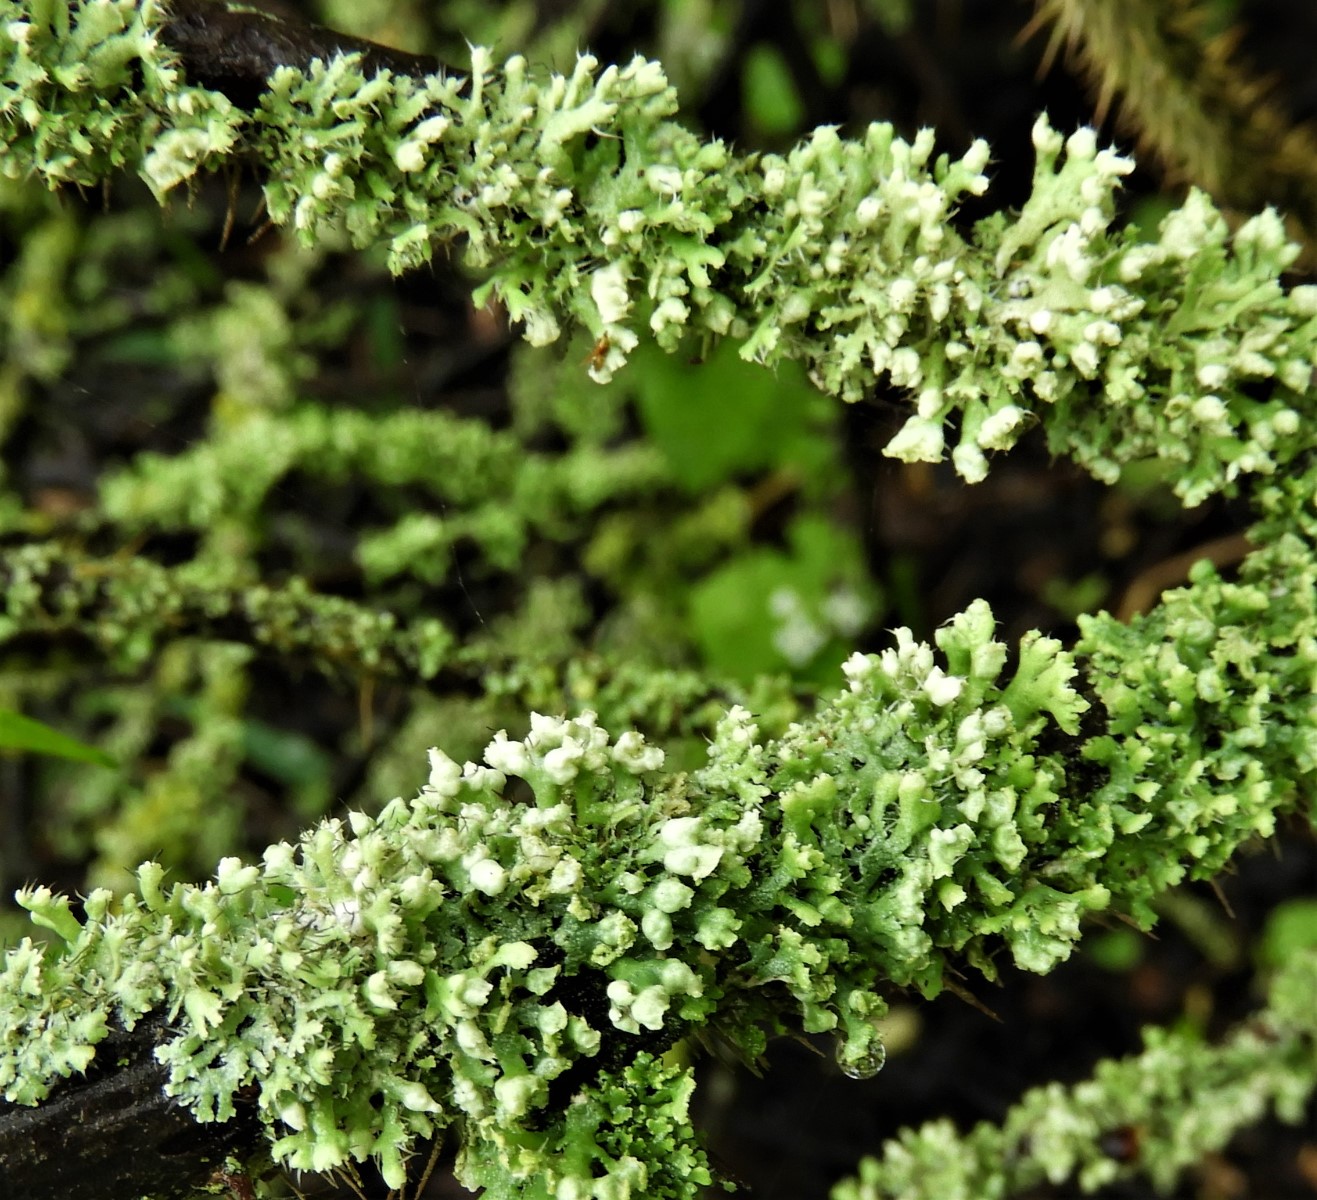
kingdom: Fungi
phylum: Ascomycota
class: Lecanoromycetes
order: Caliciales
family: Physciaceae
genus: Physcia
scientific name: Physcia adscendens
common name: hætte-rosetlav
